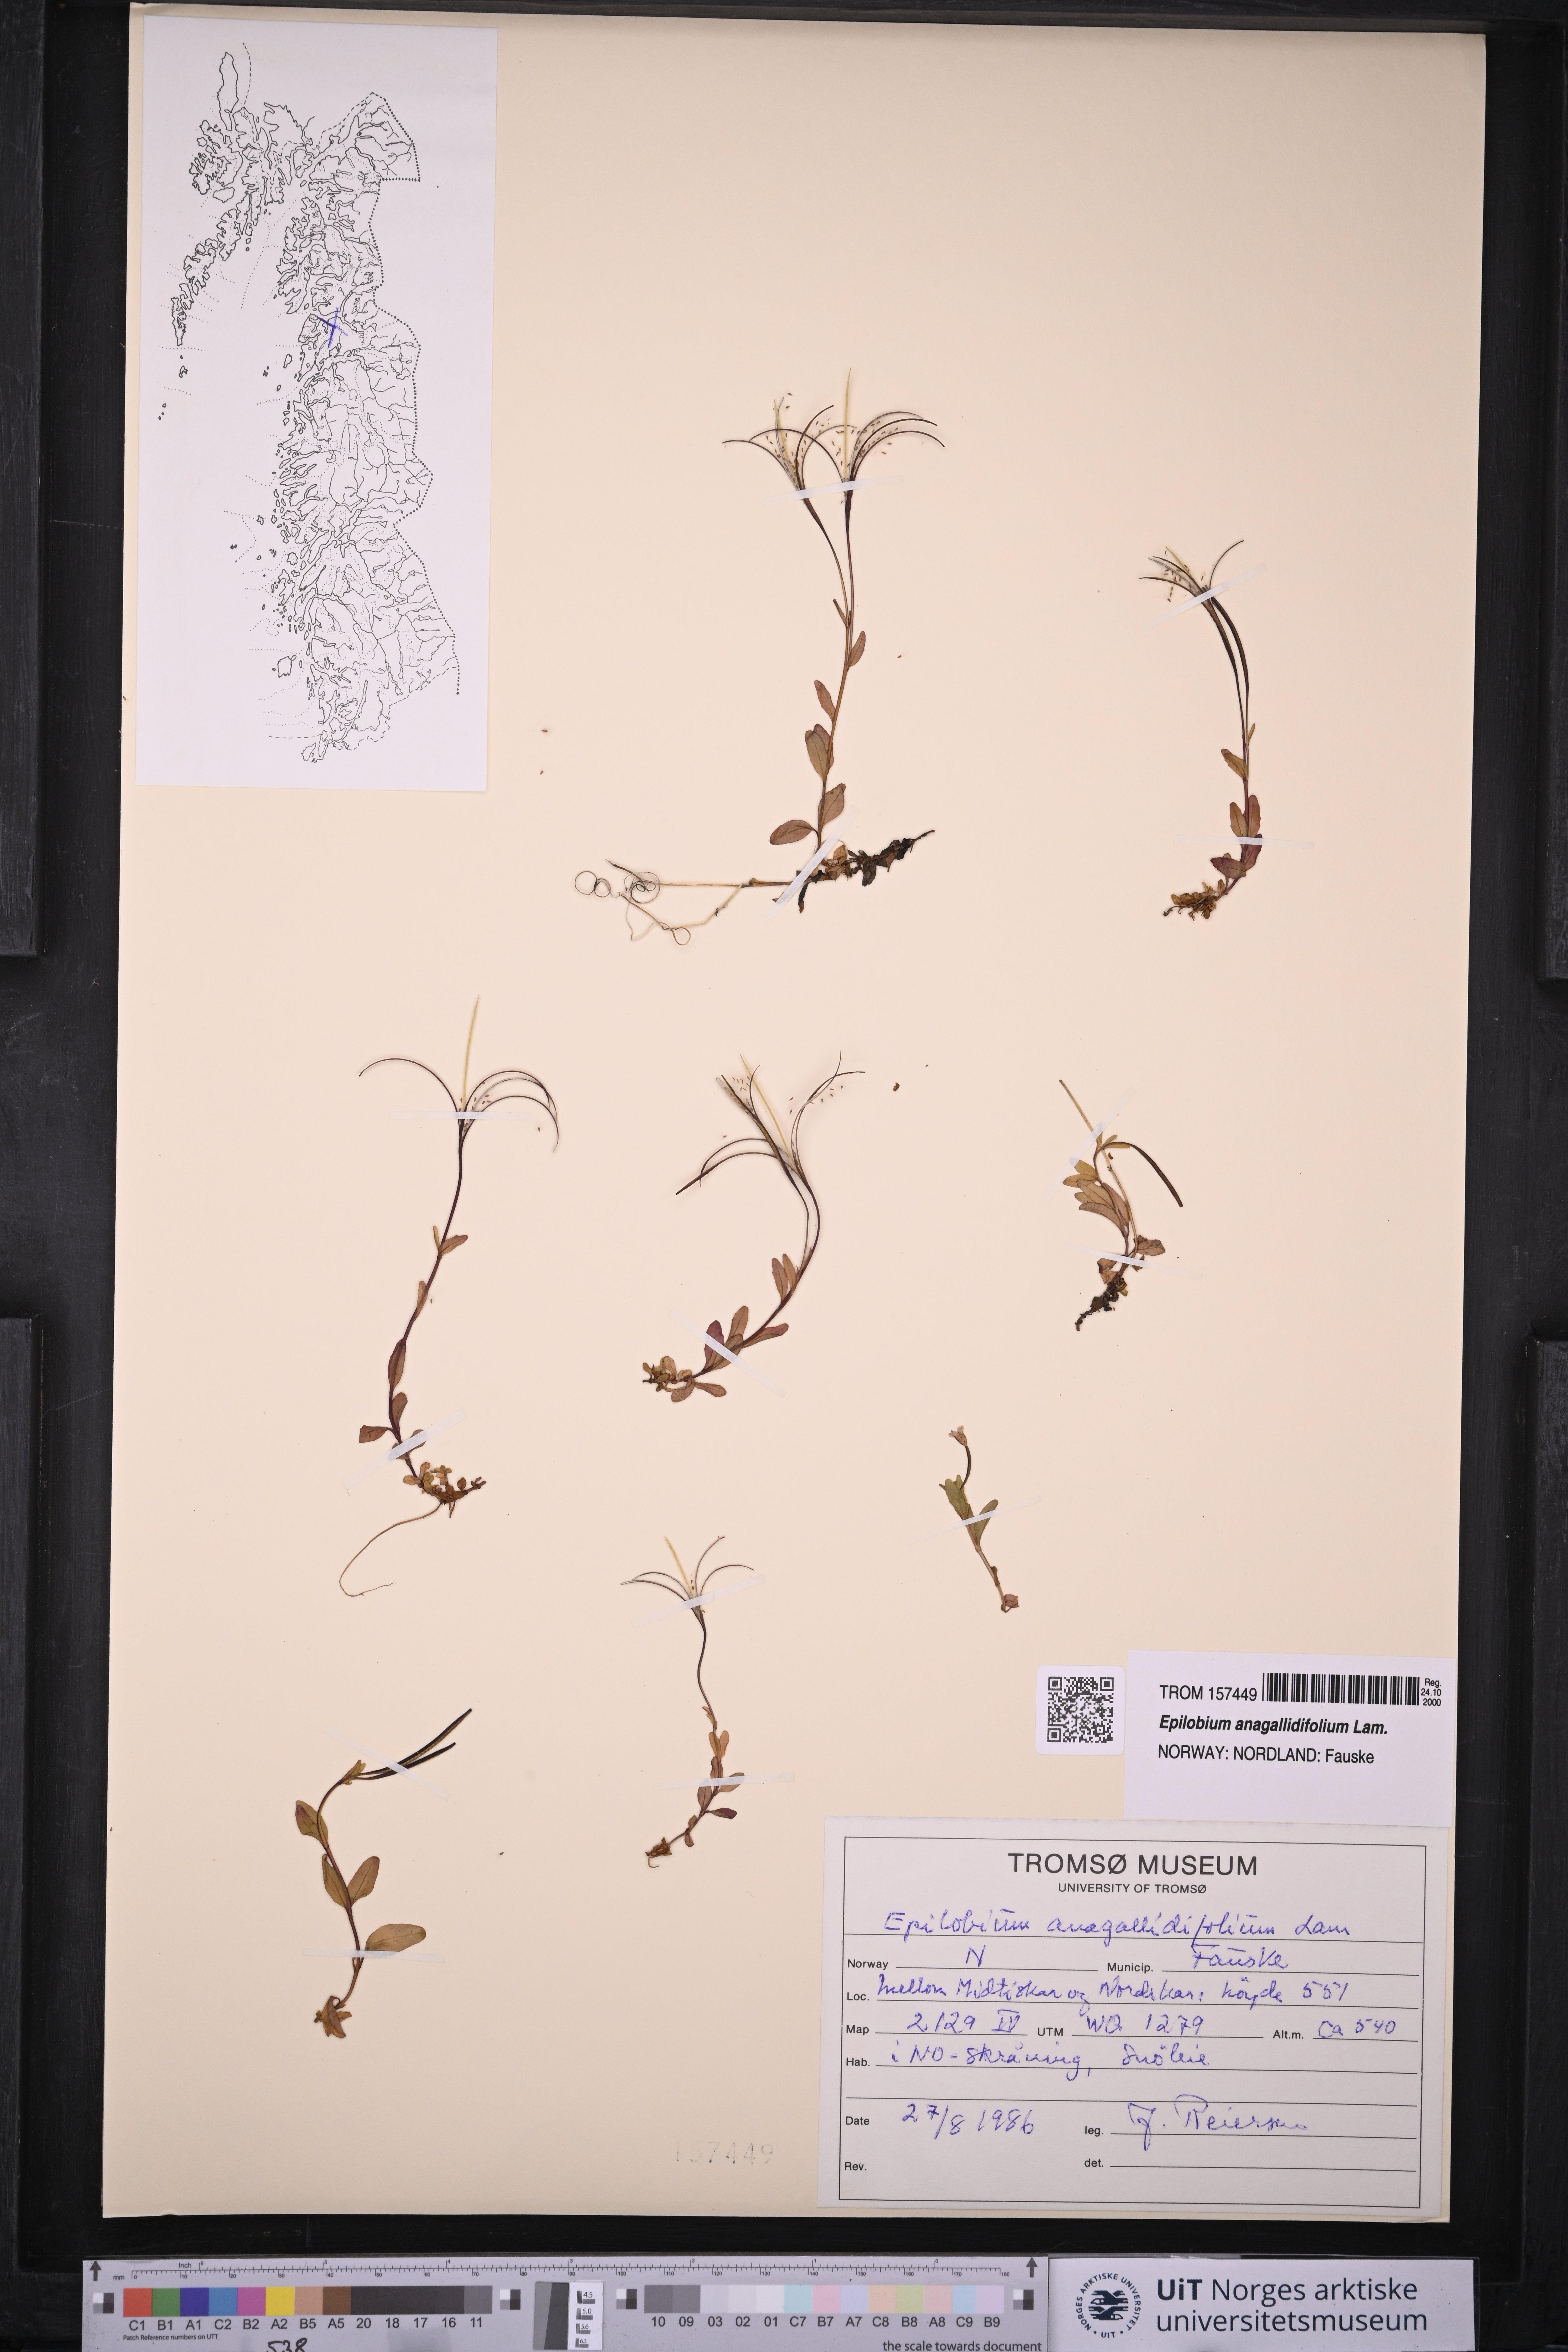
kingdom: Plantae
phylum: Tracheophyta
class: Magnoliopsida
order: Myrtales
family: Onagraceae
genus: Epilobium
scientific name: Epilobium anagallidifolium
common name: Alpine willowherb
